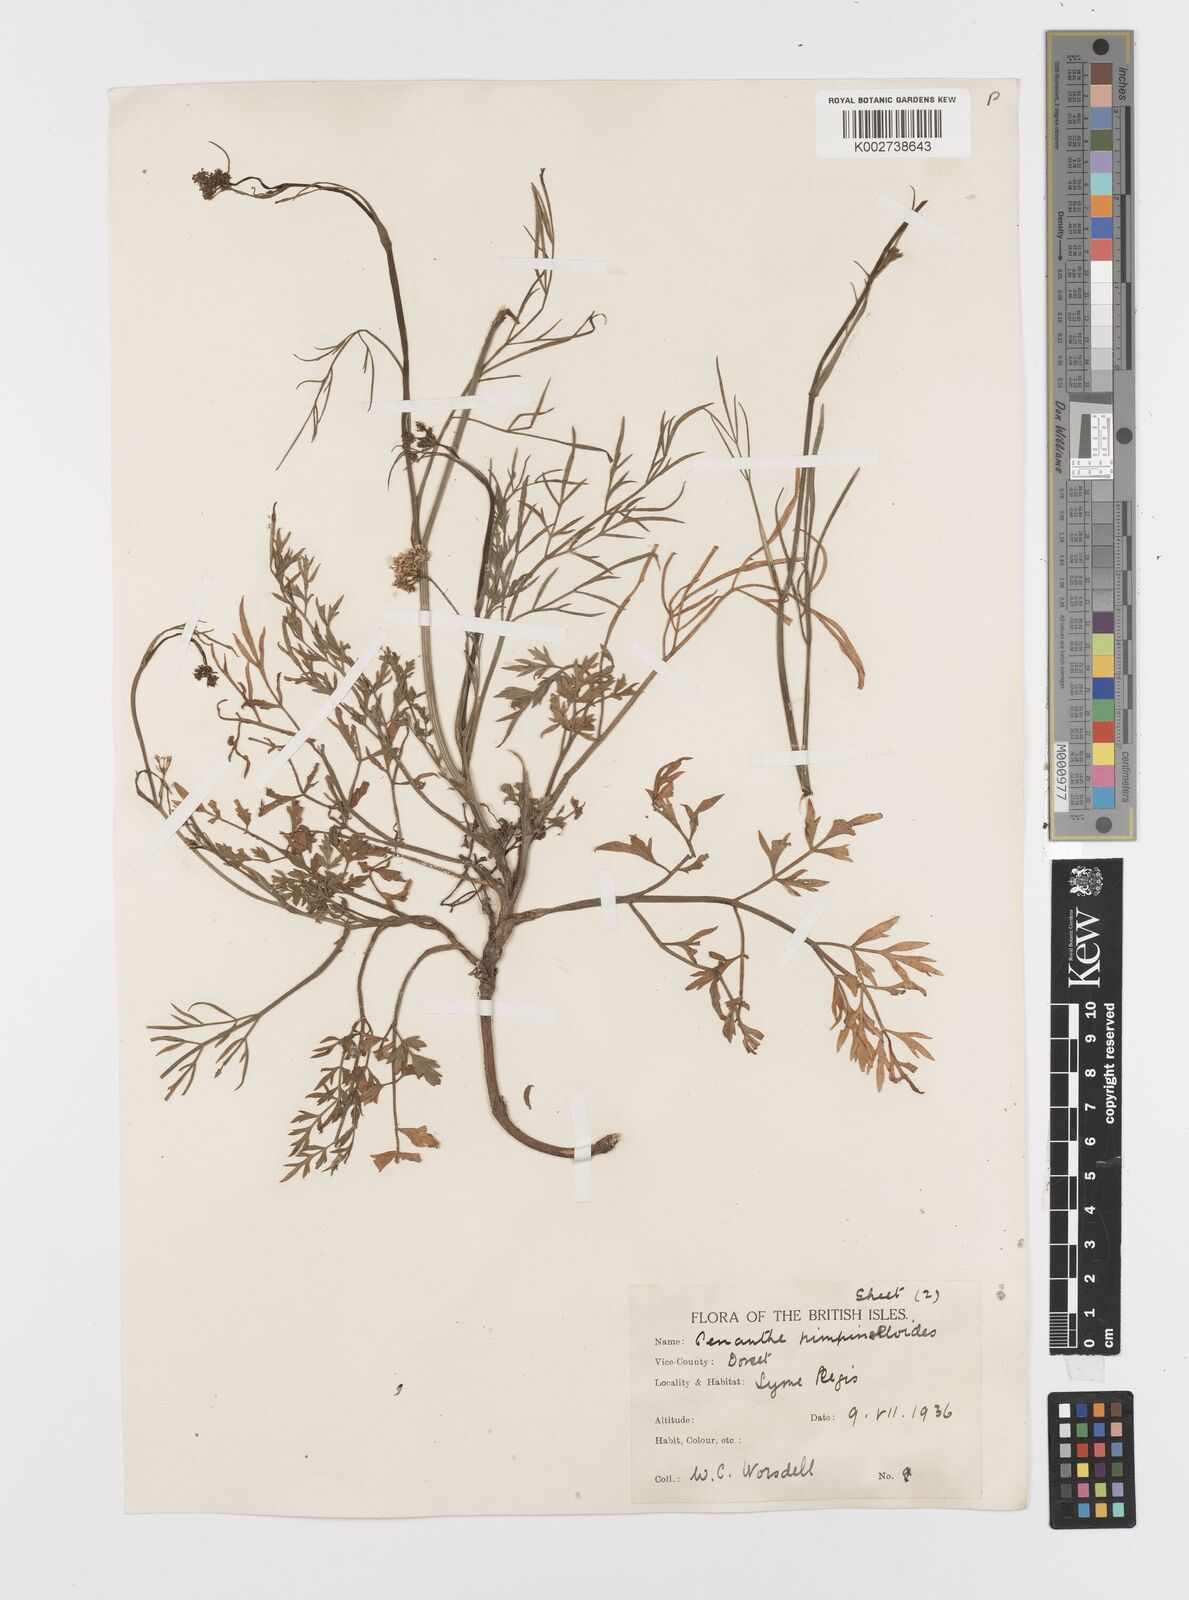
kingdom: Plantae
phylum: Tracheophyta
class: Magnoliopsida
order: Apiales
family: Apiaceae
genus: Oenanthe
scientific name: Oenanthe pimpinelloides
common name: Corky-fruited water-dropwort
